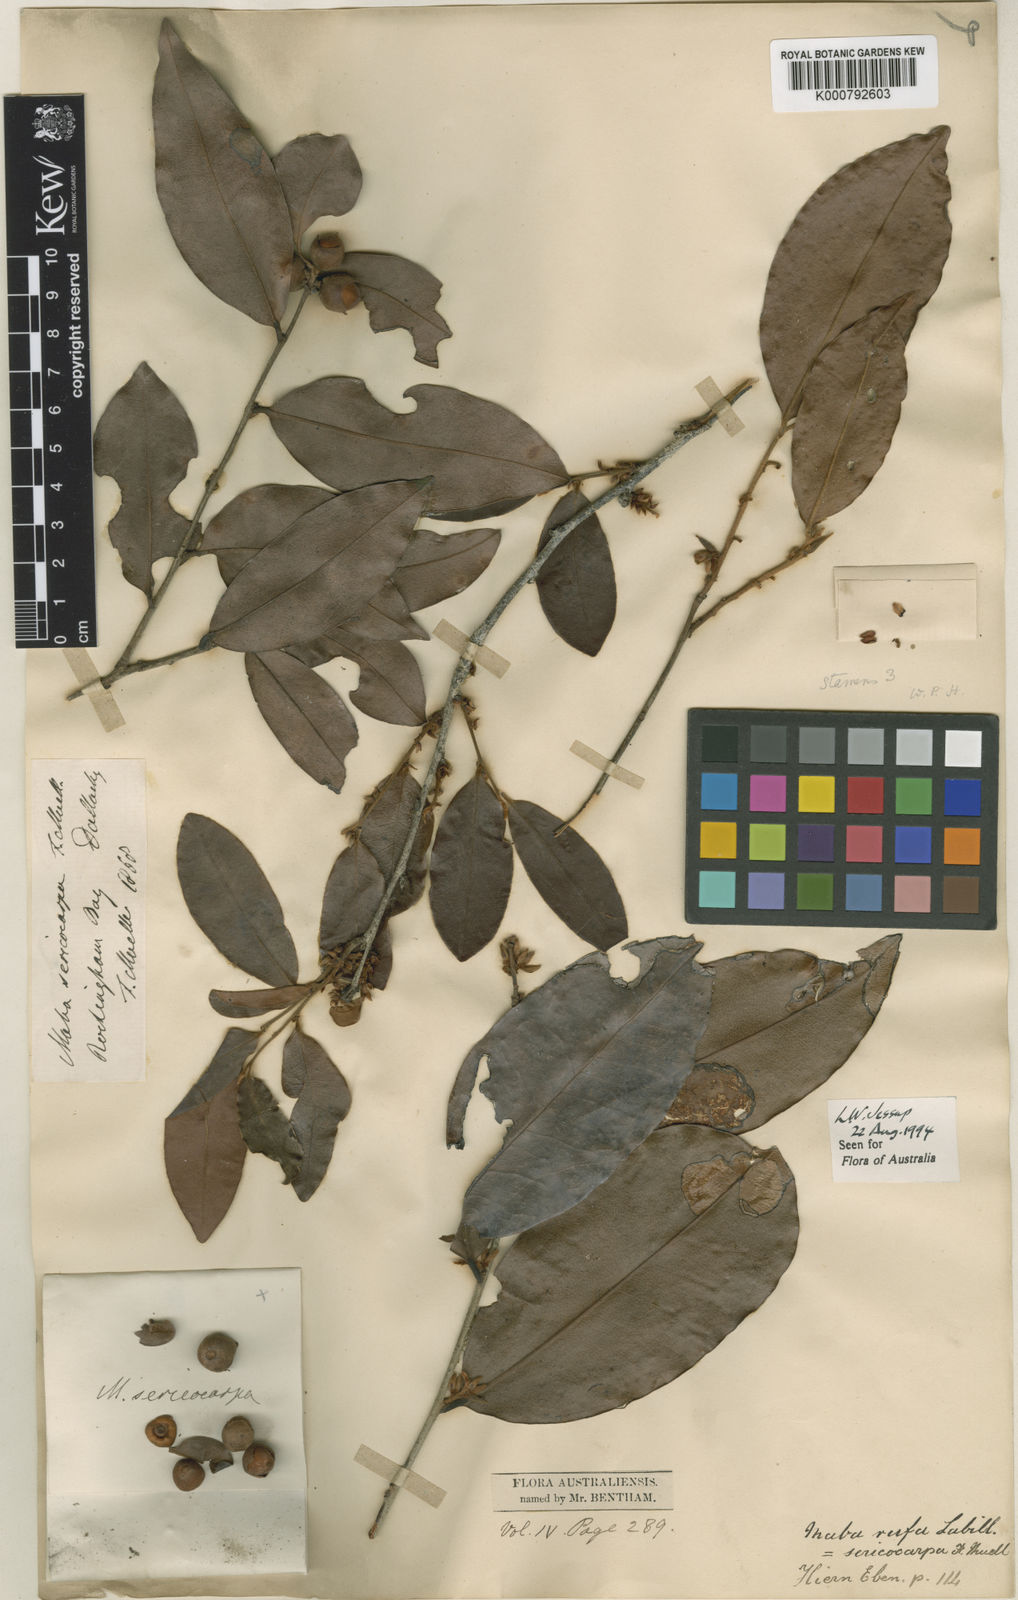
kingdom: Plantae
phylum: Tracheophyta
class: Magnoliopsida
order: Ericales
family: Ebenaceae
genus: Diospyros
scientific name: Diospyros laurina
